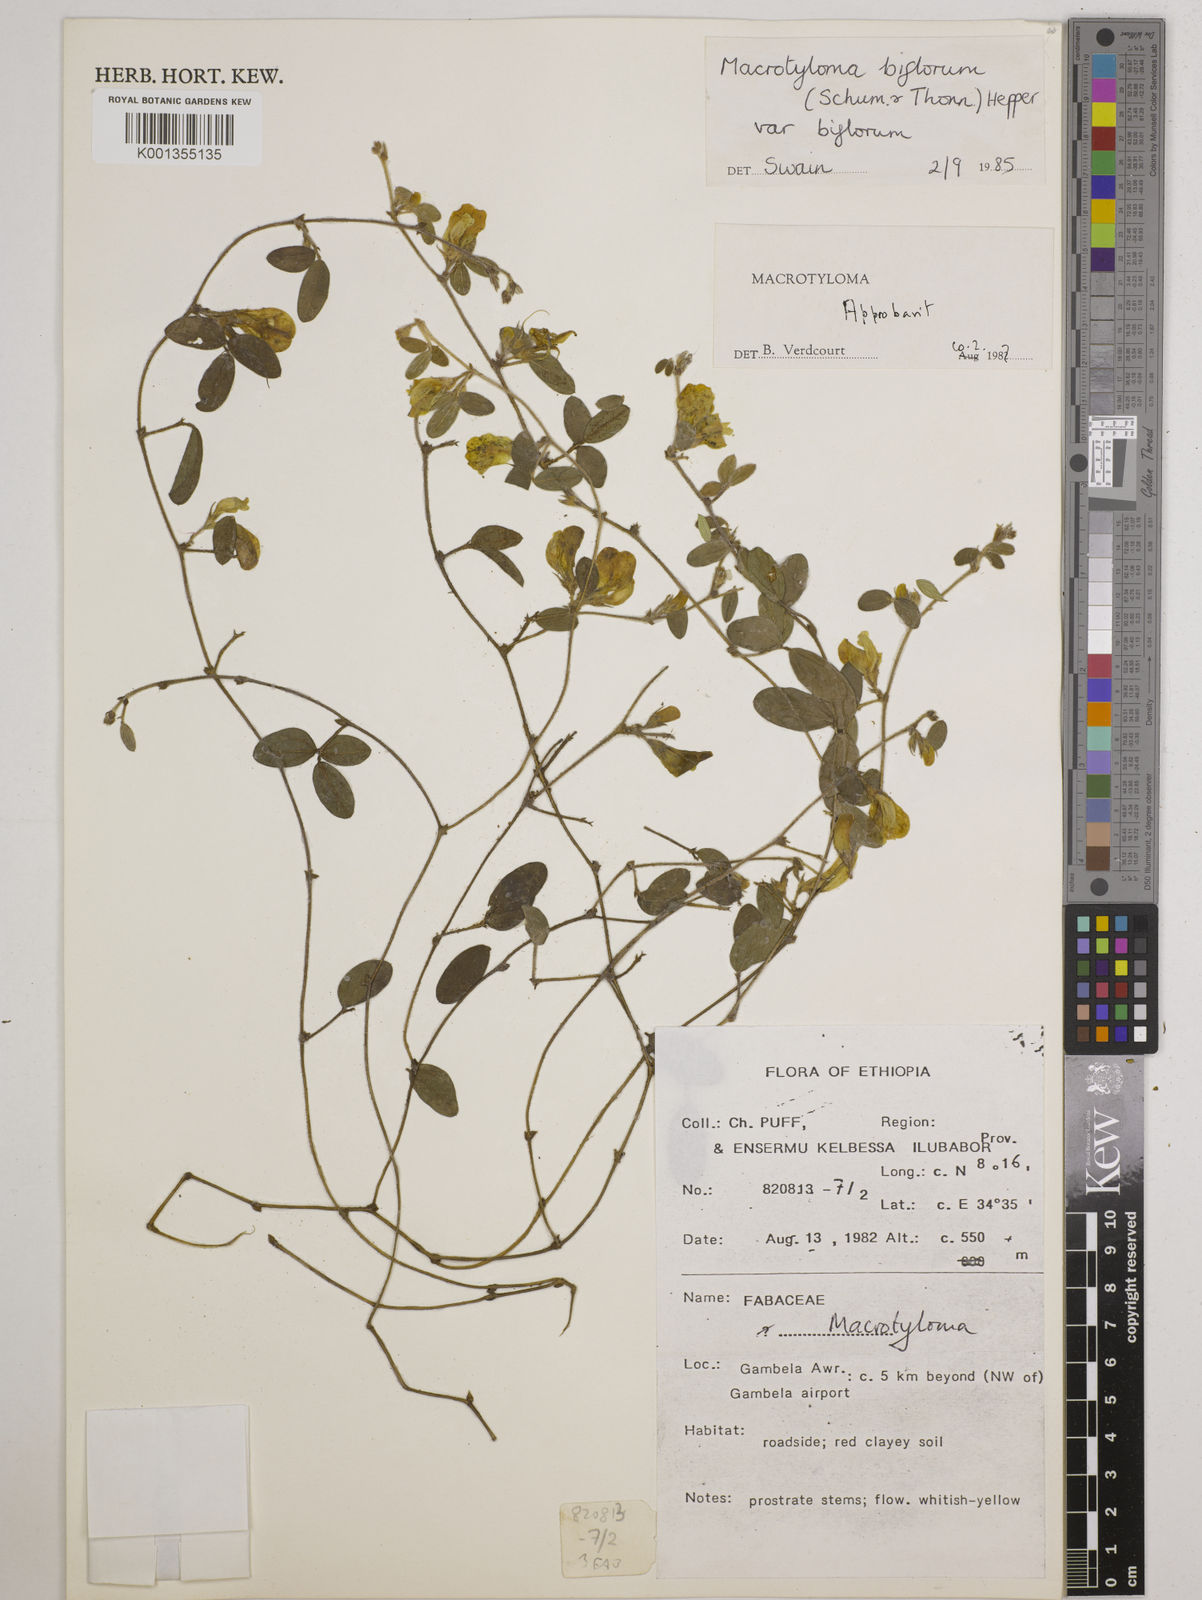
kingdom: Plantae
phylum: Tracheophyta
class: Magnoliopsida
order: Fabales
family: Fabaceae
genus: Macrotyloma
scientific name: Macrotyloma biflorum
